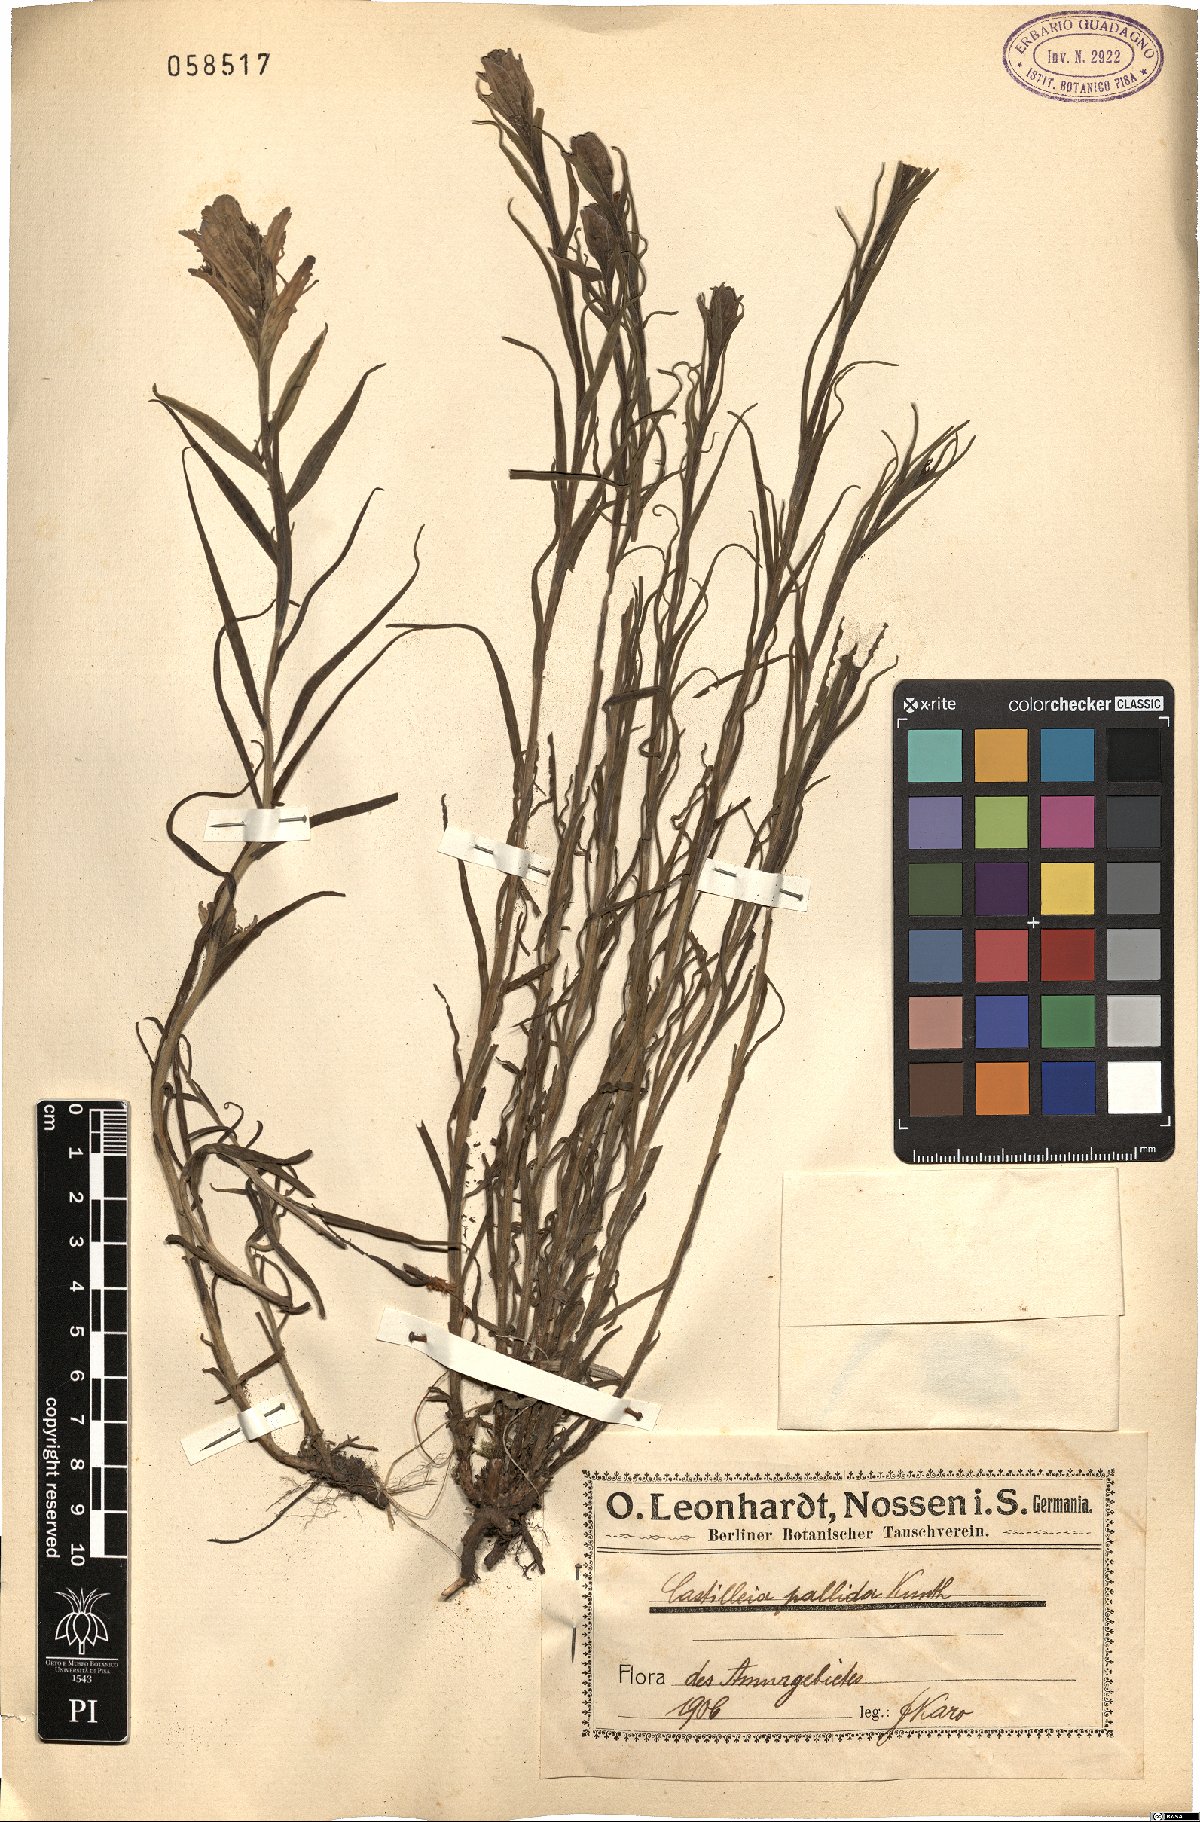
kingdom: Plantae
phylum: Tracheophyta
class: Magnoliopsida
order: Lamiales
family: Orobanchaceae
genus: Castilleja
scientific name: Castilleja pallida
